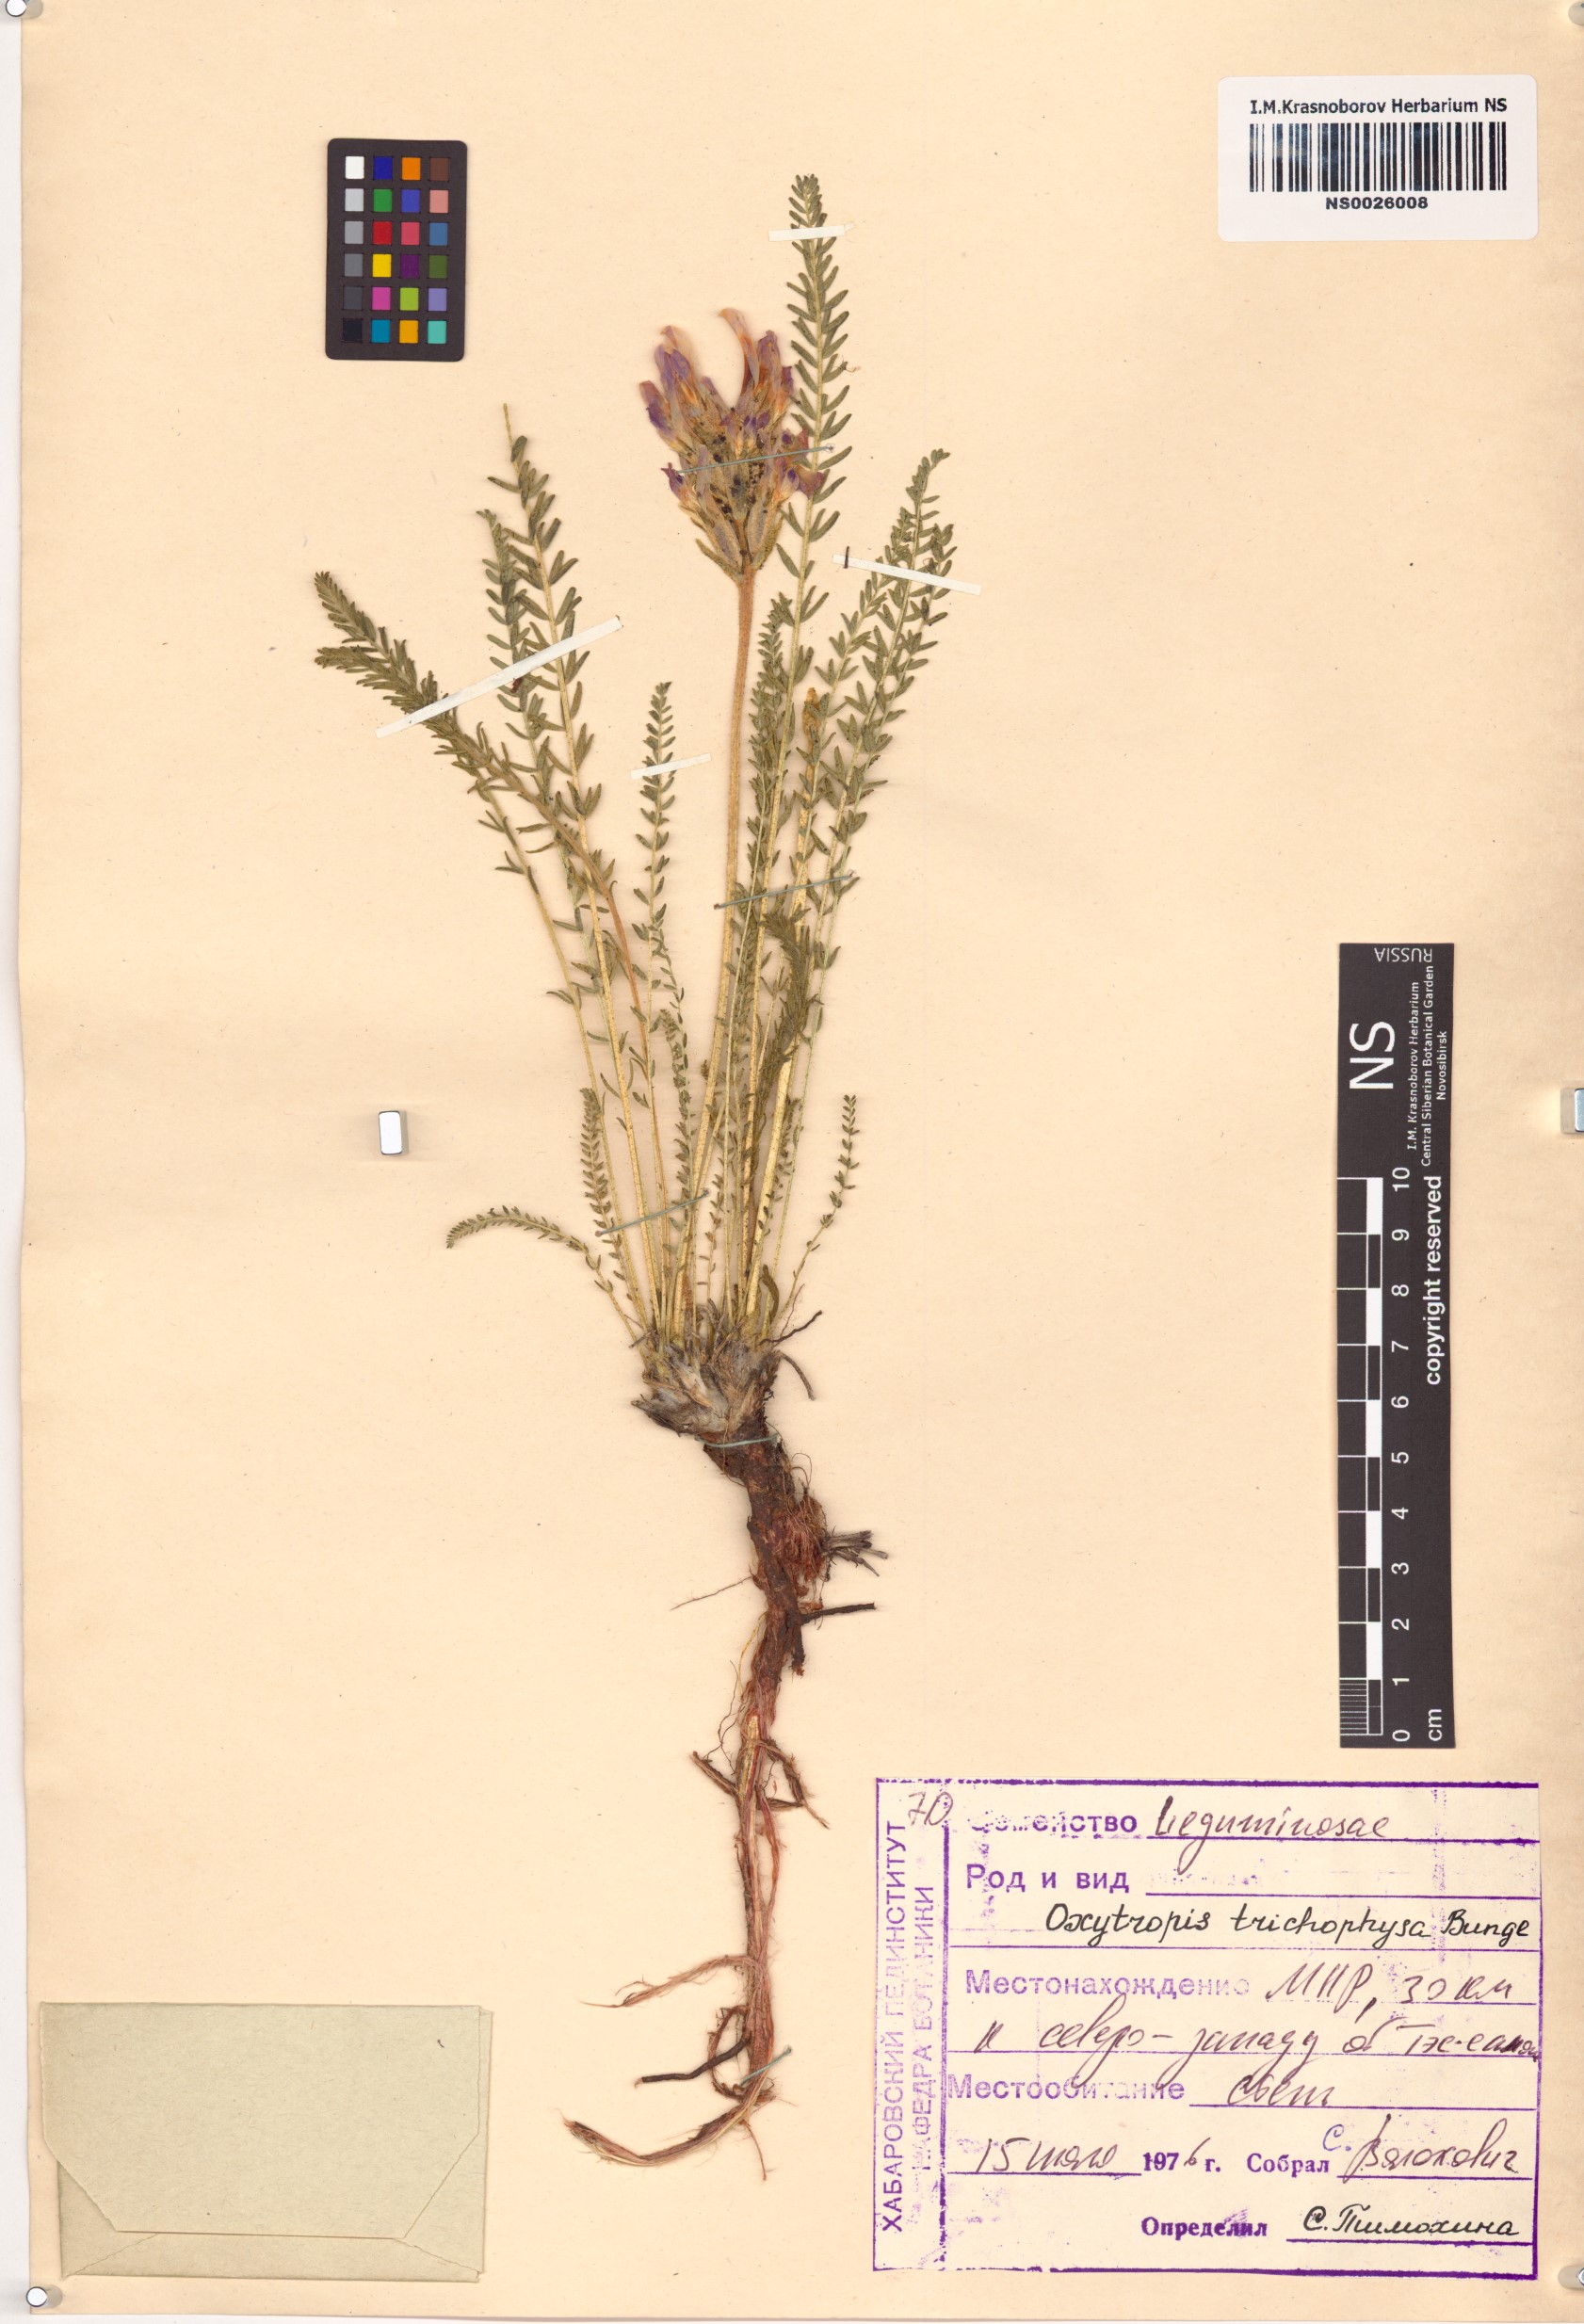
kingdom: Plantae
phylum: Tracheophyta
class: Magnoliopsida
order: Fabales
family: Fabaceae
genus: Oxytropis
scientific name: Oxytropis trichophysa
